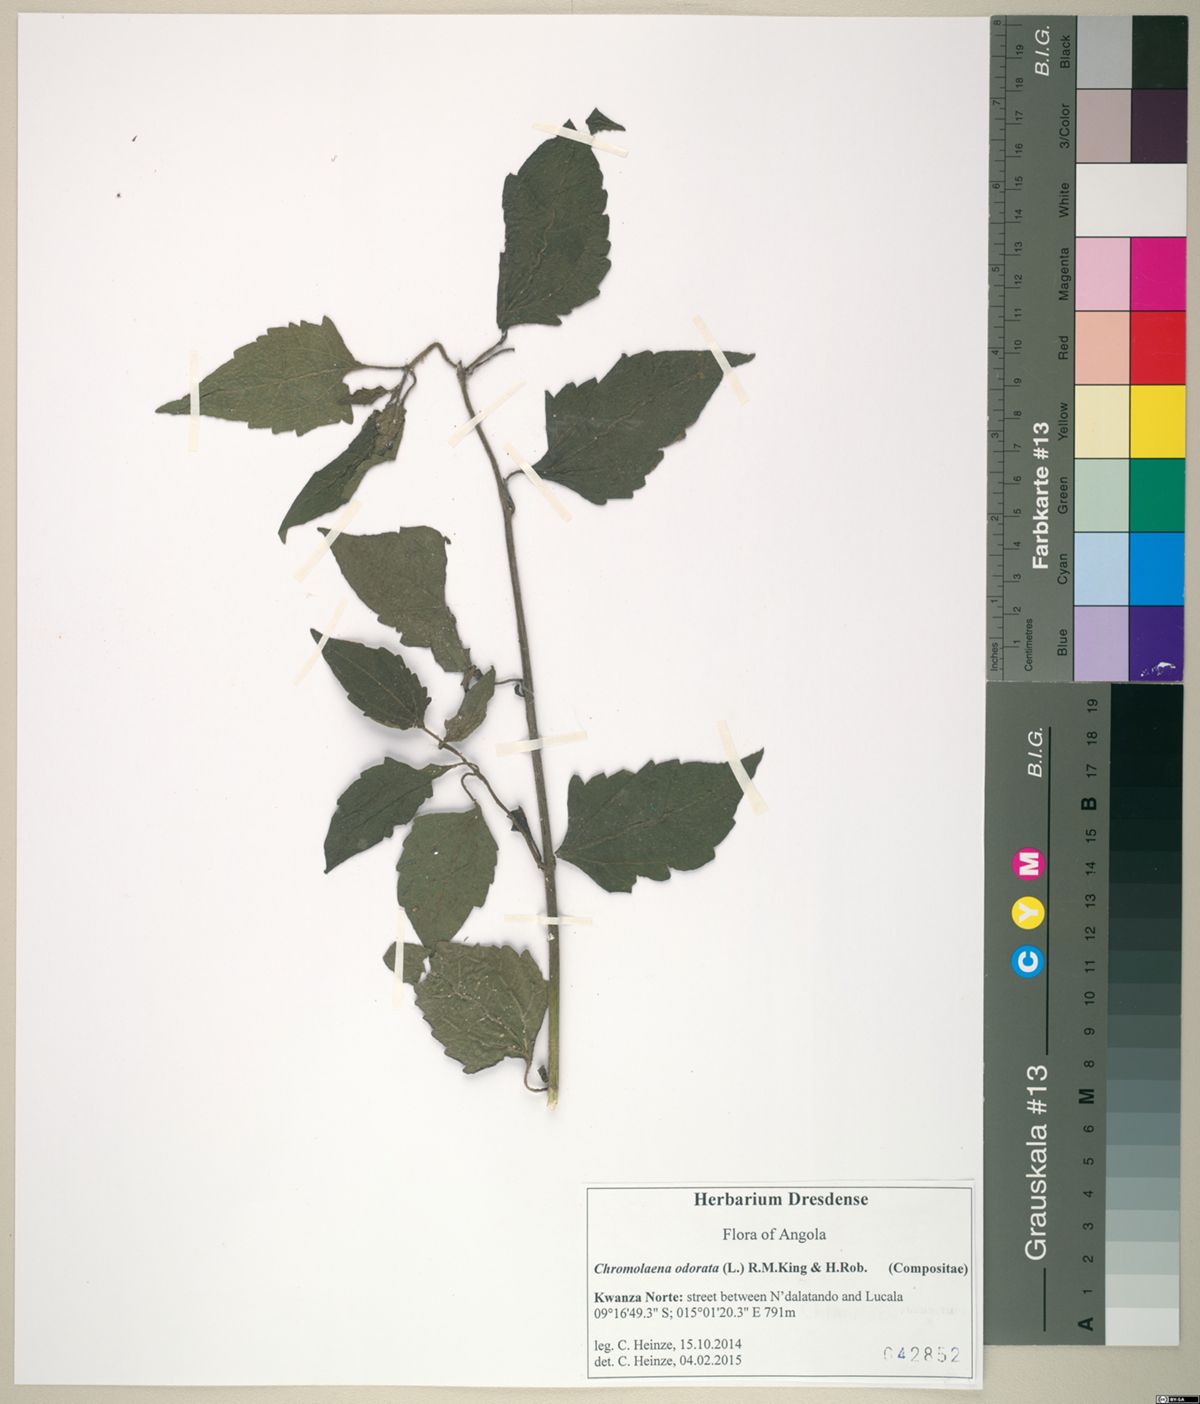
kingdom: Plantae
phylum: Tracheophyta
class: Magnoliopsida
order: Asterales
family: Asteraceae
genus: Chromolaena
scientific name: Chromolaena odorata
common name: Siamweed
